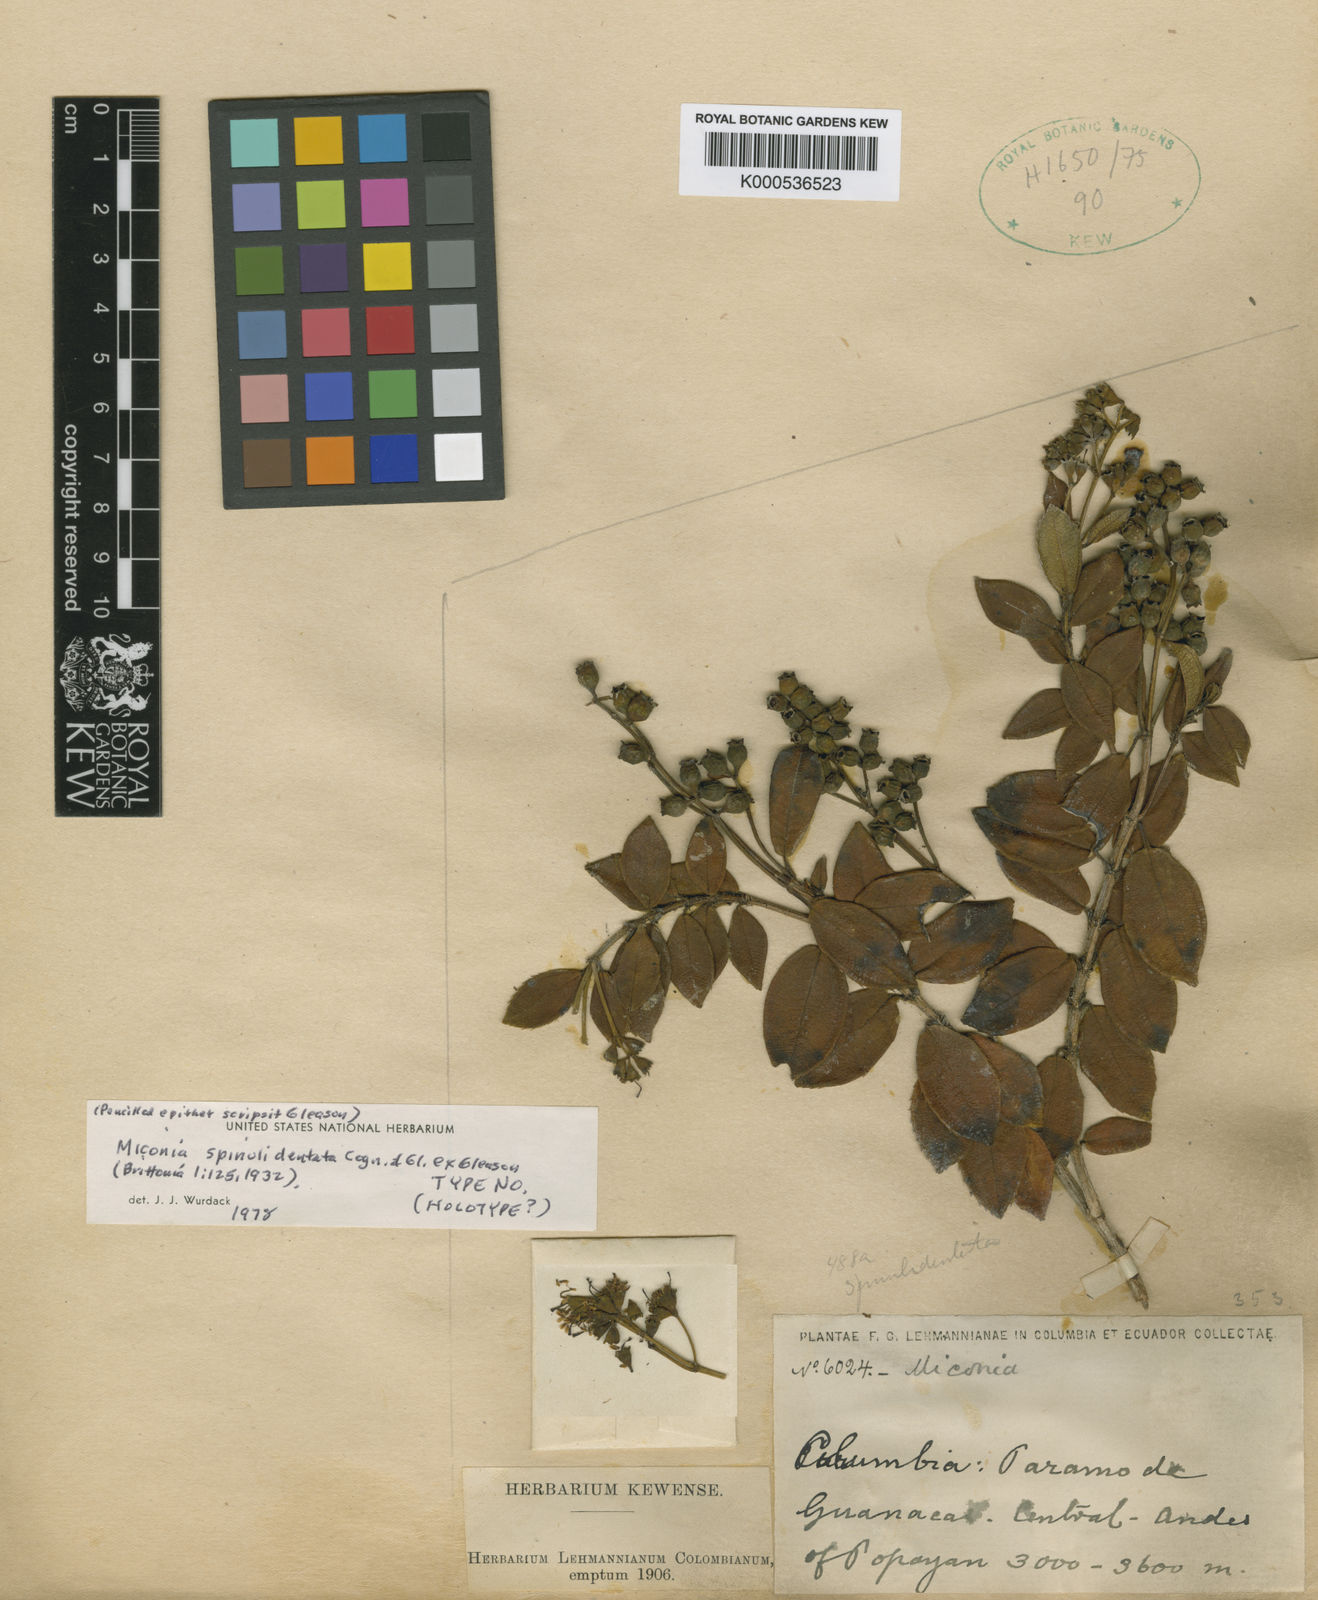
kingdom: Plantae
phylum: Tracheophyta
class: Magnoliopsida
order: Myrtales
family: Melastomataceae
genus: Miconia
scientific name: Miconia spinulidentata
